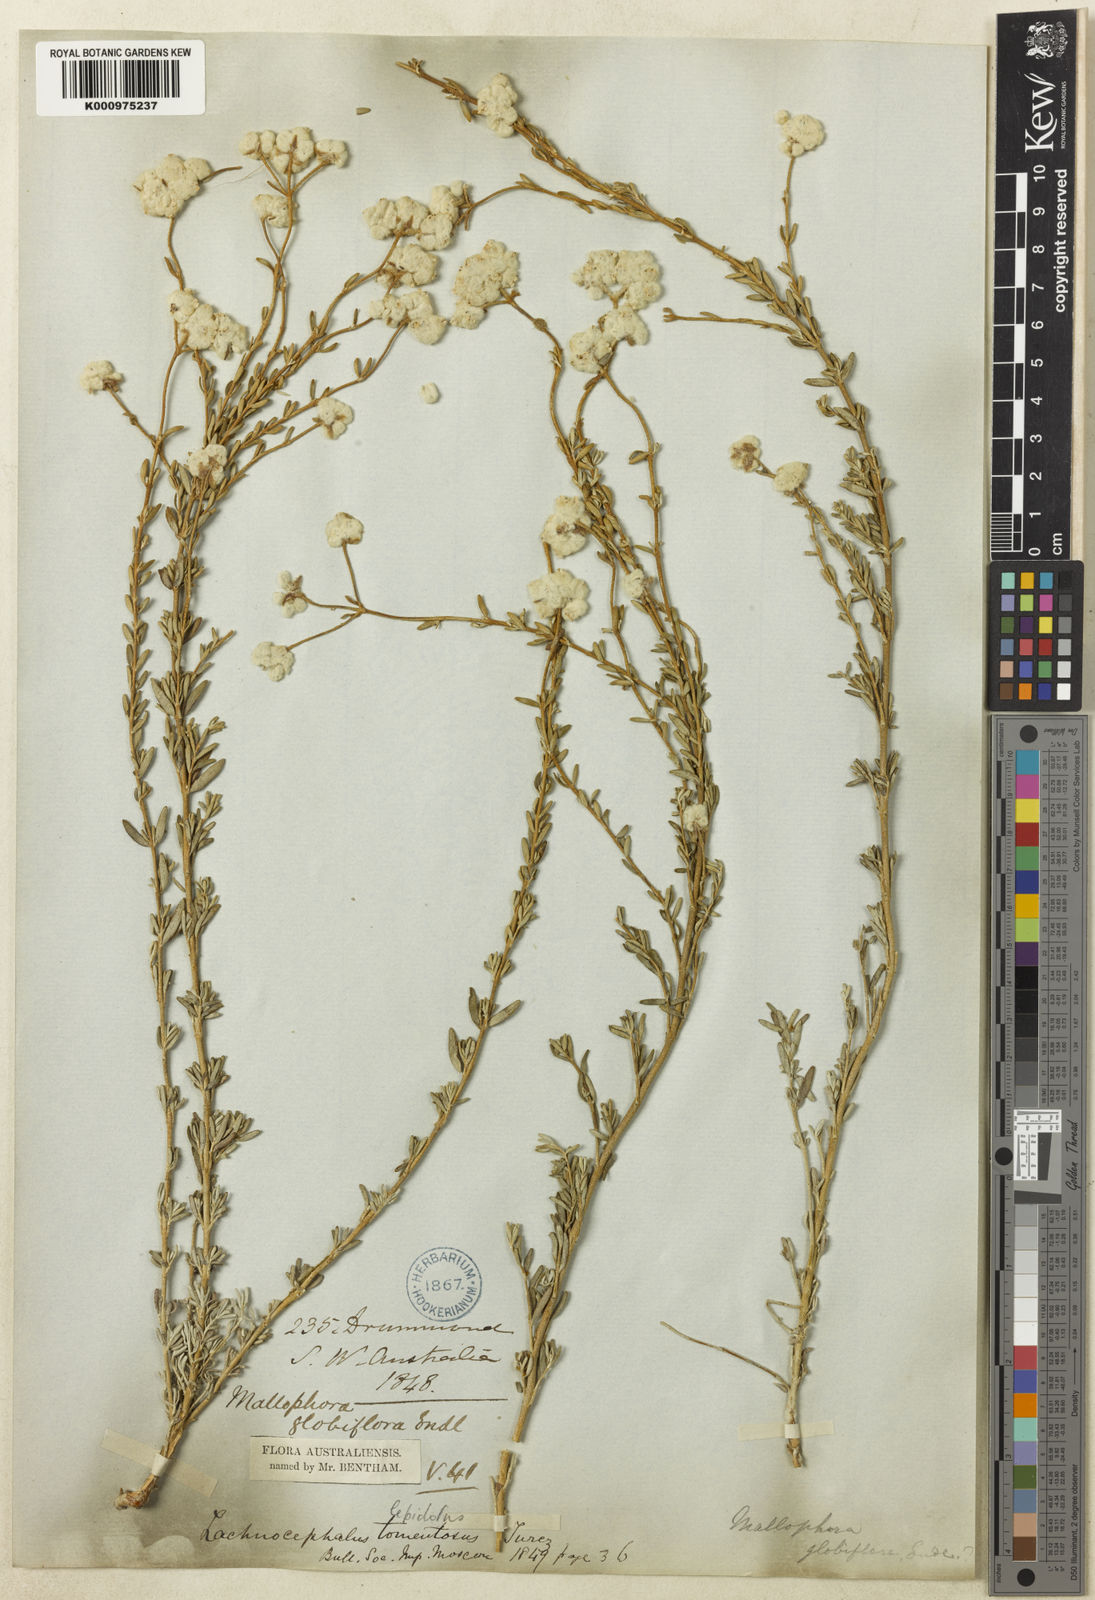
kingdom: Plantae
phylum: Tracheophyta
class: Magnoliopsida
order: Lamiales
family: Lamiaceae
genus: Dicrastylis
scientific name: Dicrastylis globiflora
